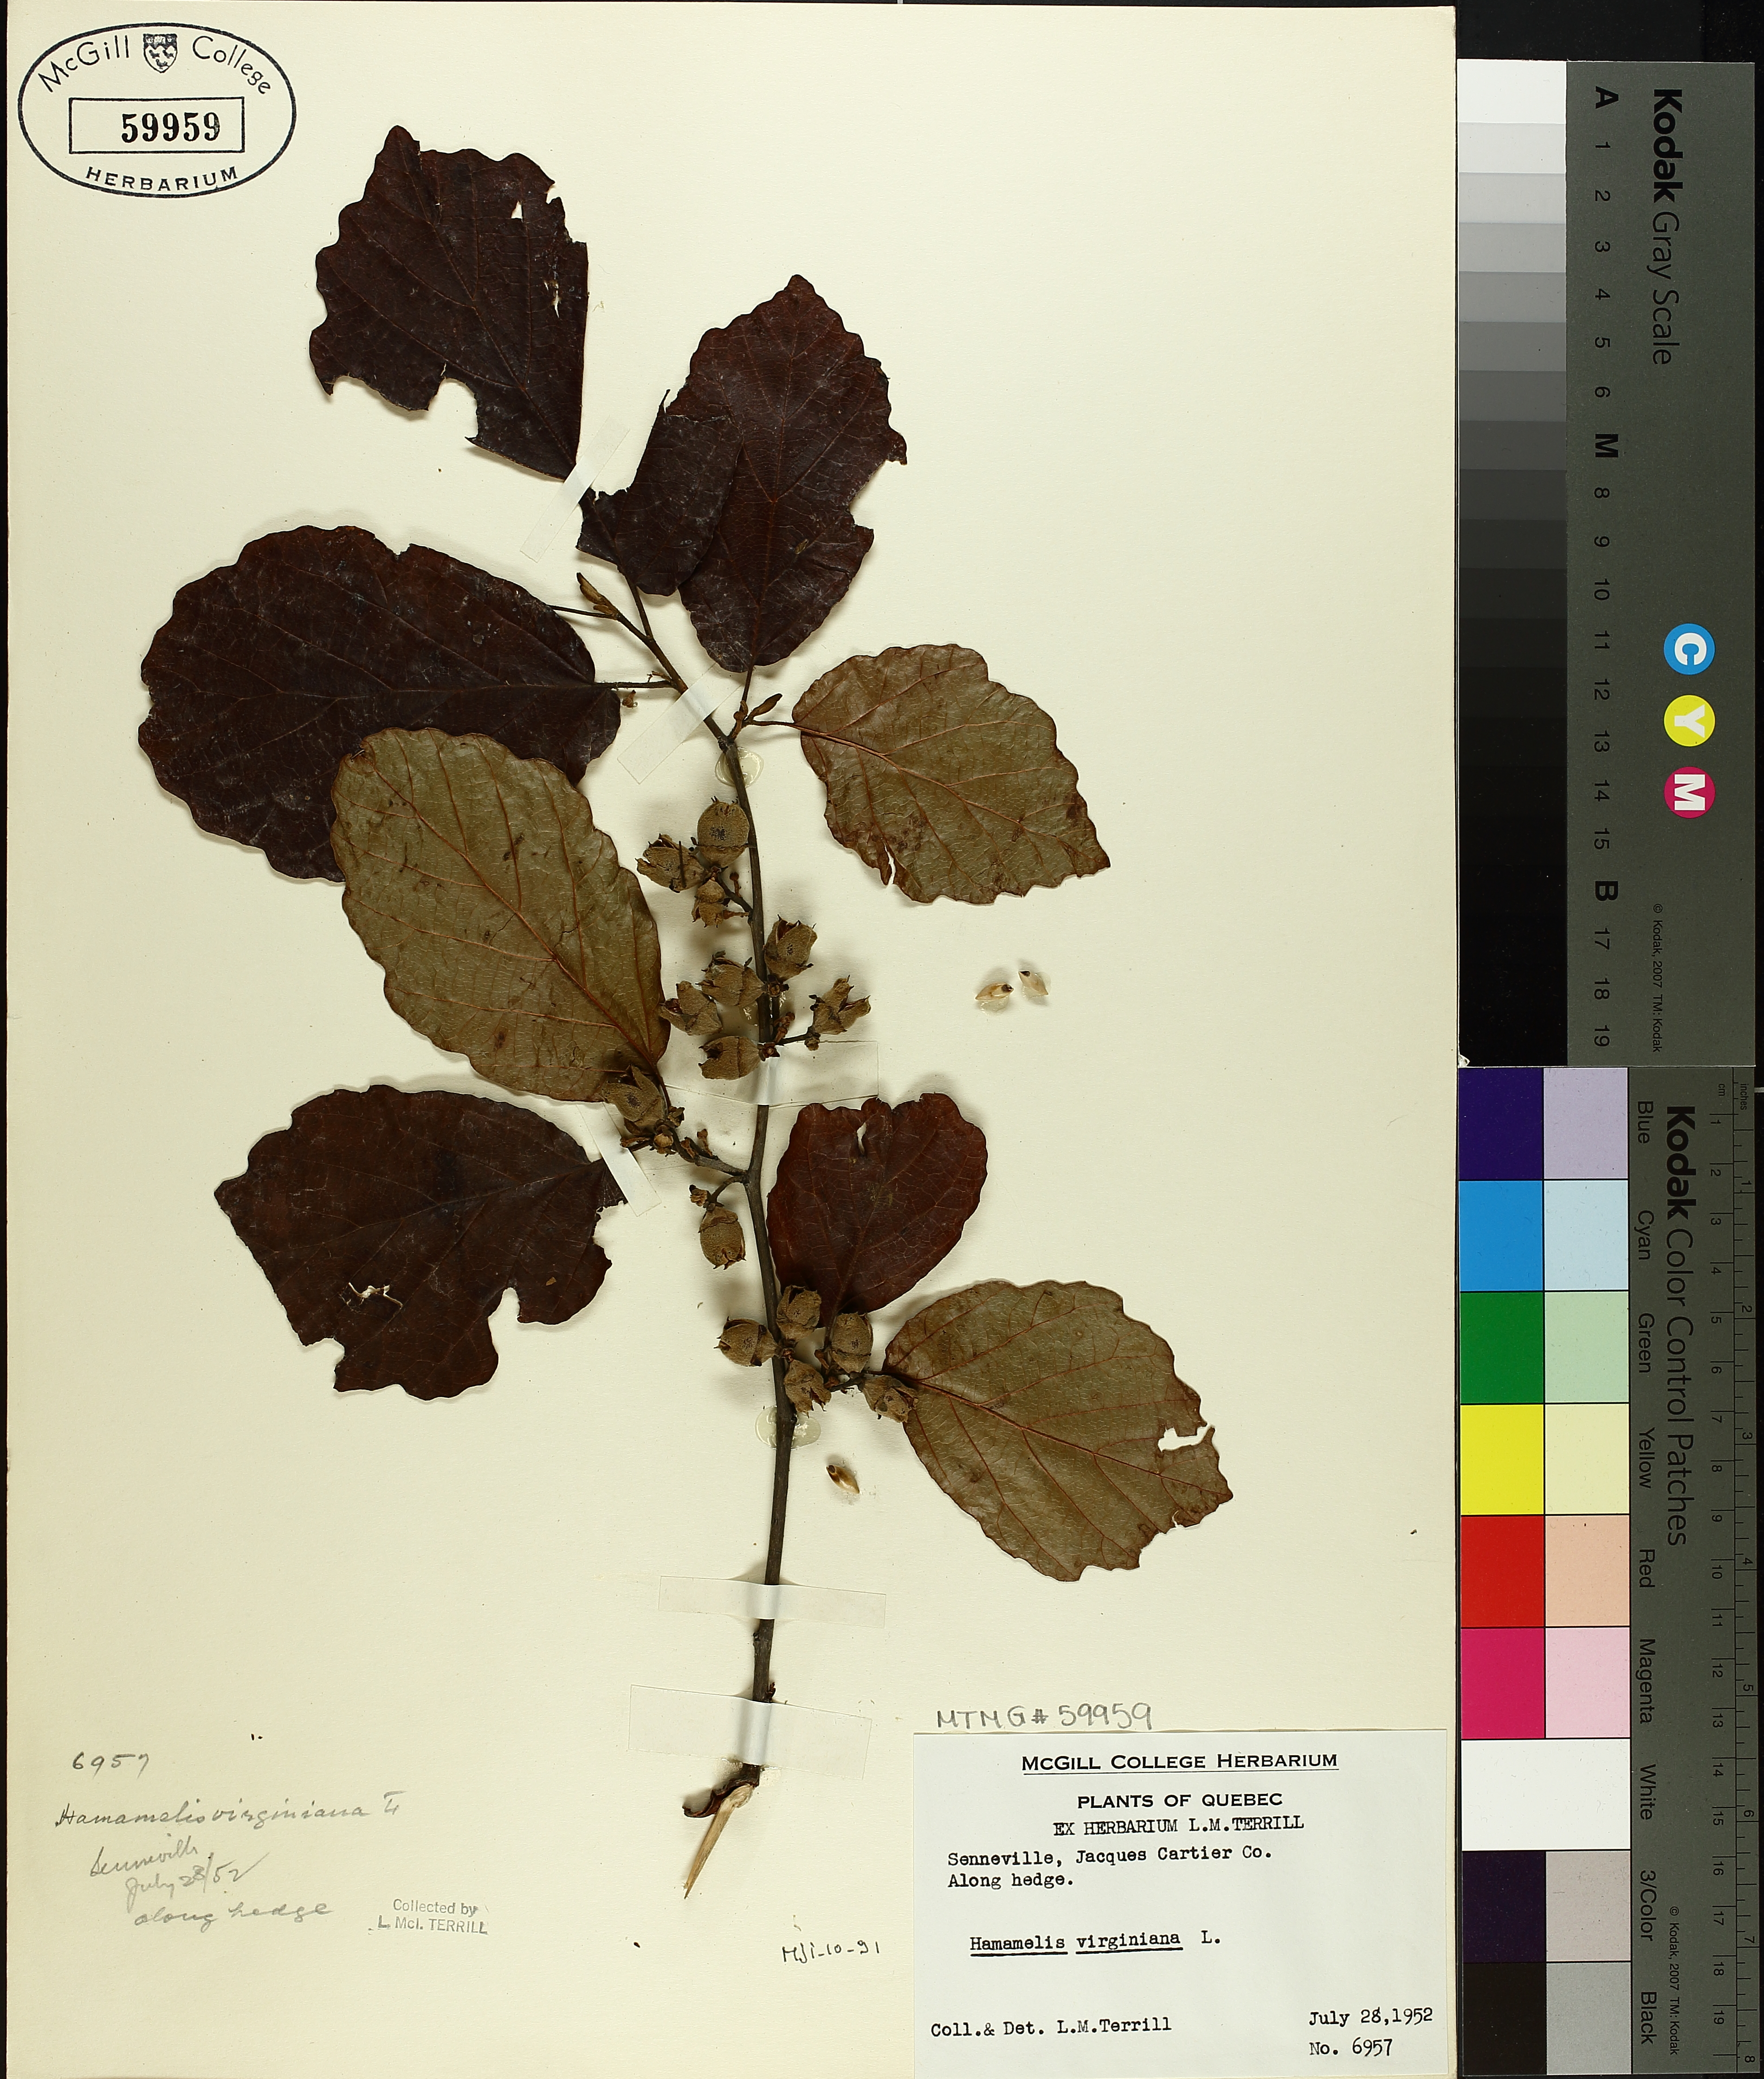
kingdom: Plantae
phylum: Tracheophyta
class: Magnoliopsida
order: Saxifragales
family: Hamamelidaceae
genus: Hamamelis
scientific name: Hamamelis virginiana
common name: Witch-hazel
